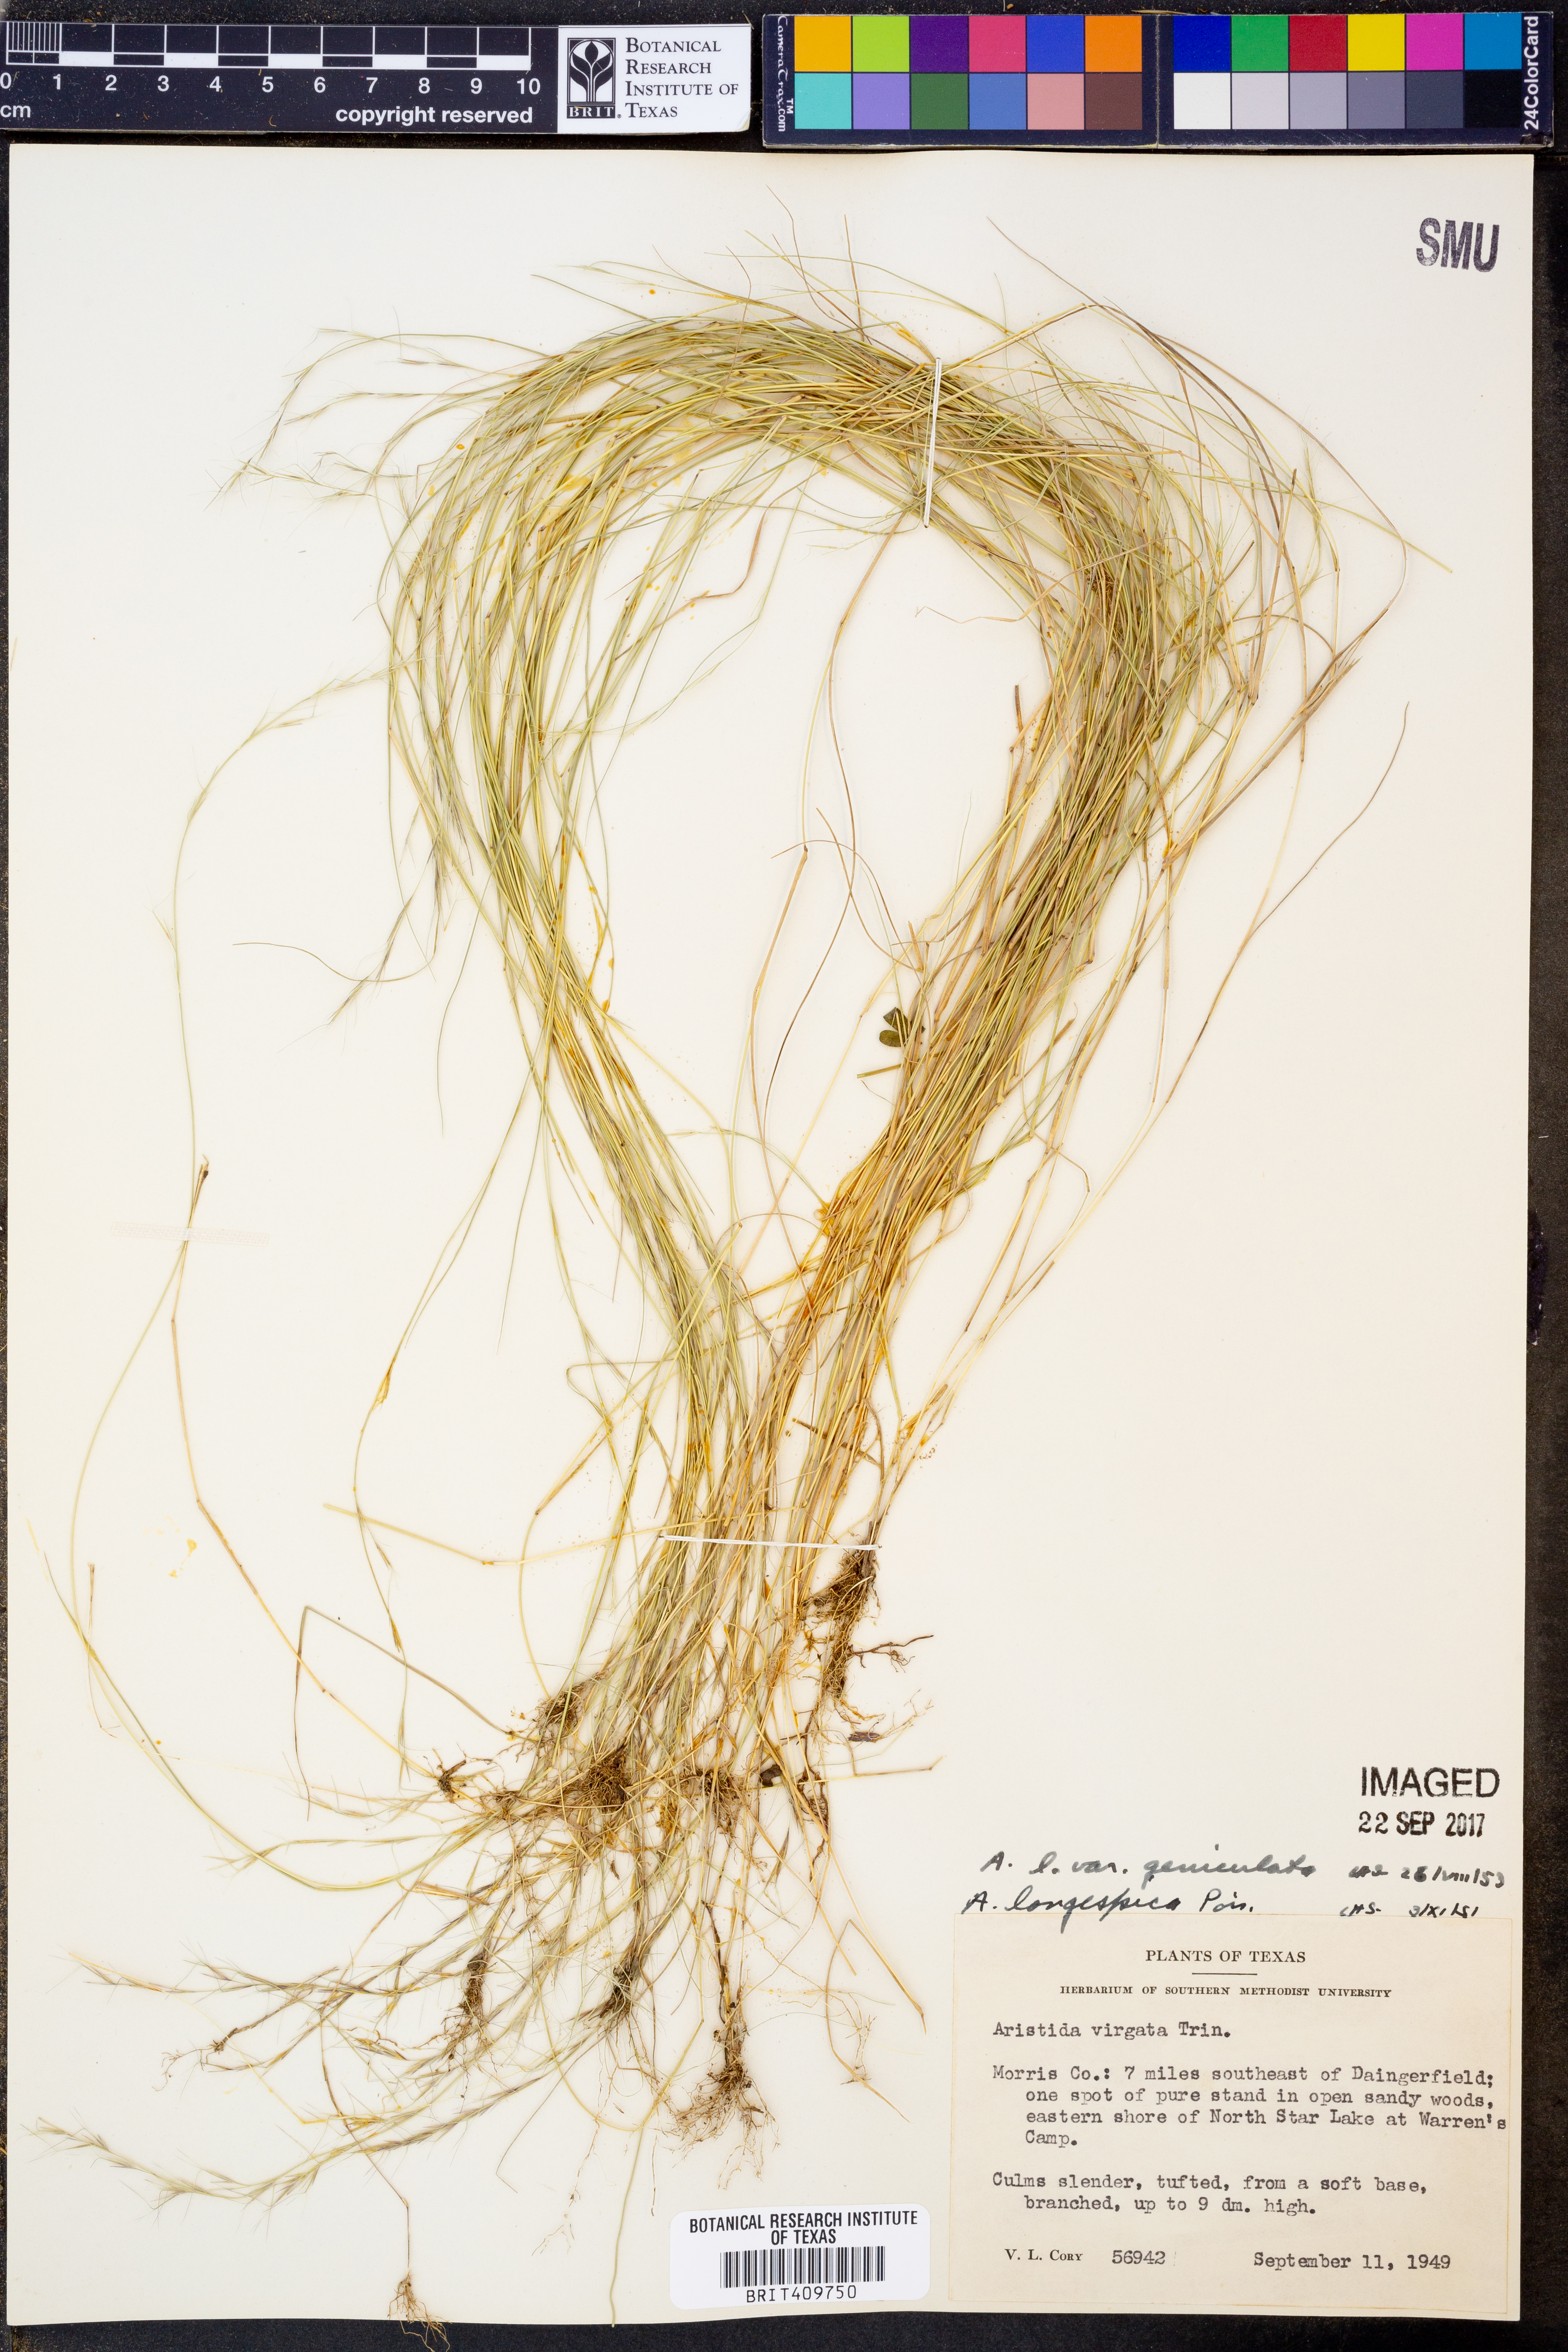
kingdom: Plantae
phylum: Tracheophyta
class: Liliopsida
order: Poales
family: Poaceae
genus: Aristida
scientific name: Aristida longespica
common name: Long-spiked triple-awned grass
